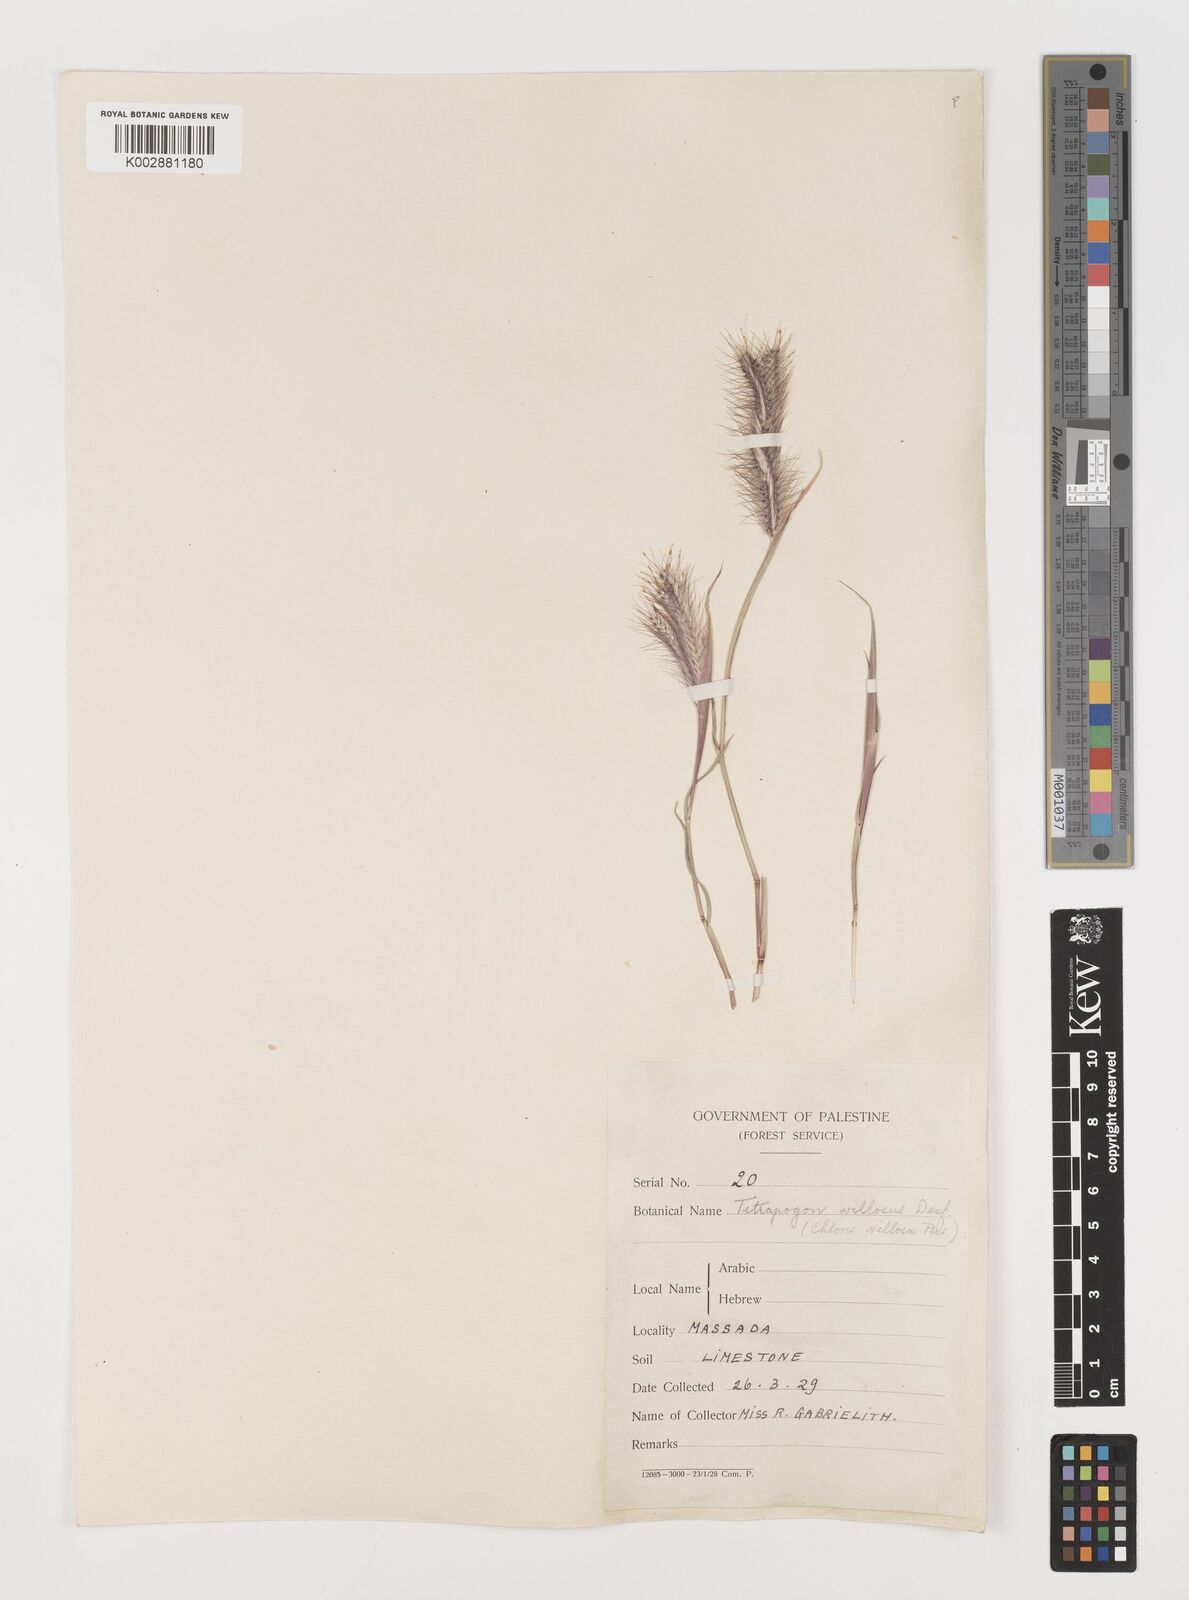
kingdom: Plantae
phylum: Tracheophyta
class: Liliopsida
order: Poales
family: Poaceae
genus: Tetrapogon
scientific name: Tetrapogon villosus
